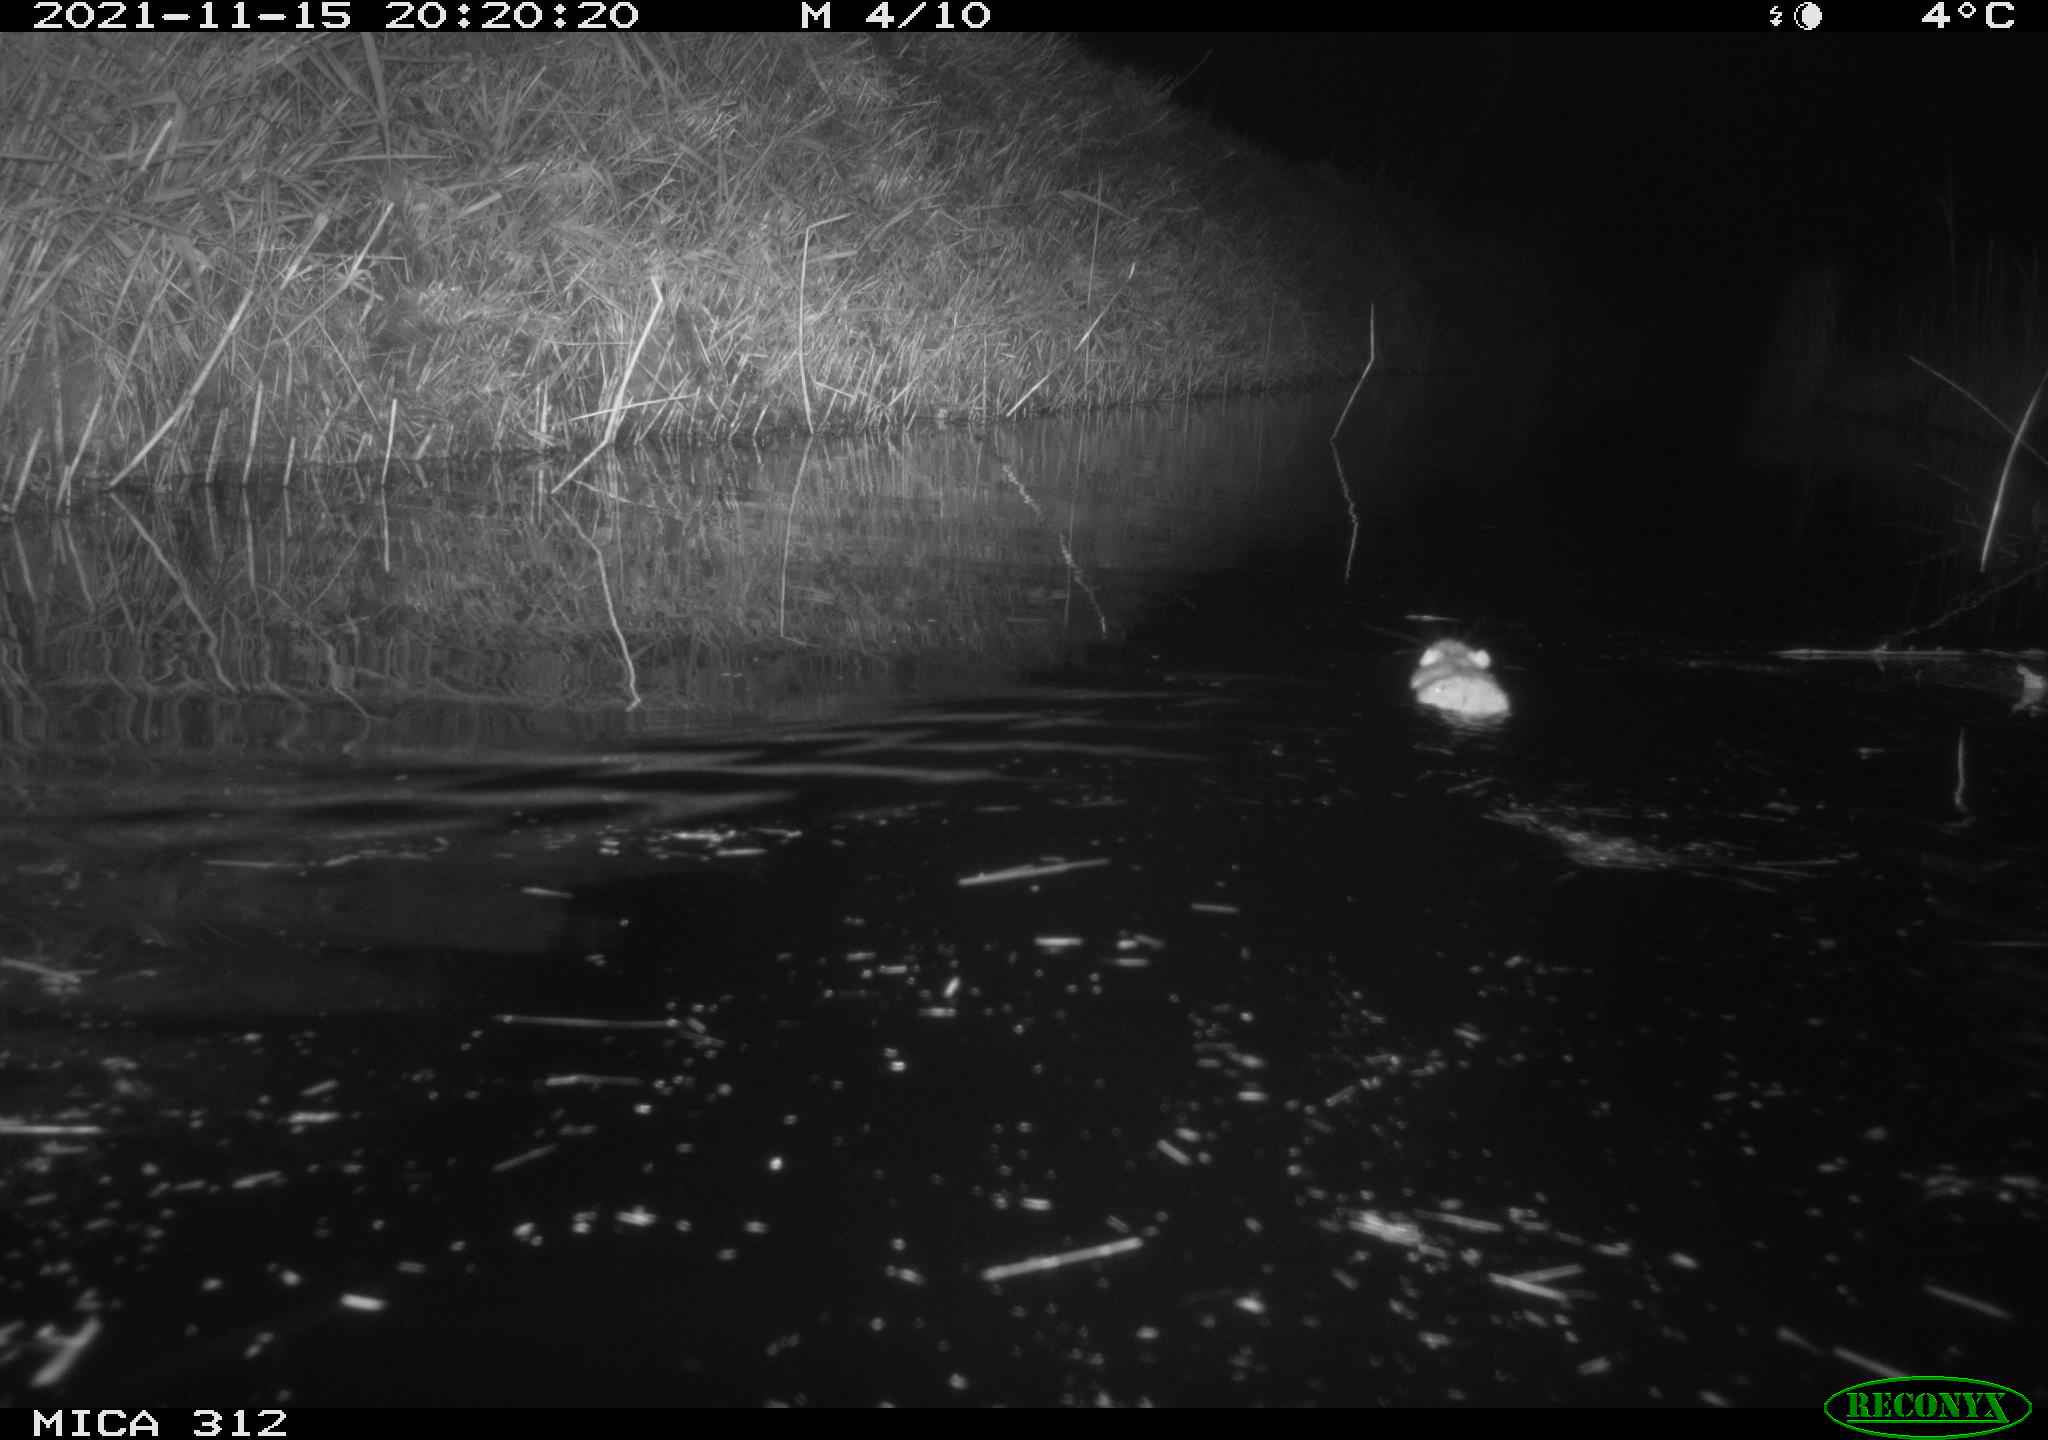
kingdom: Animalia
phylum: Chordata
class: Mammalia
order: Rodentia
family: Muridae
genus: Rattus
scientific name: Rattus norvegicus
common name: Brown rat
